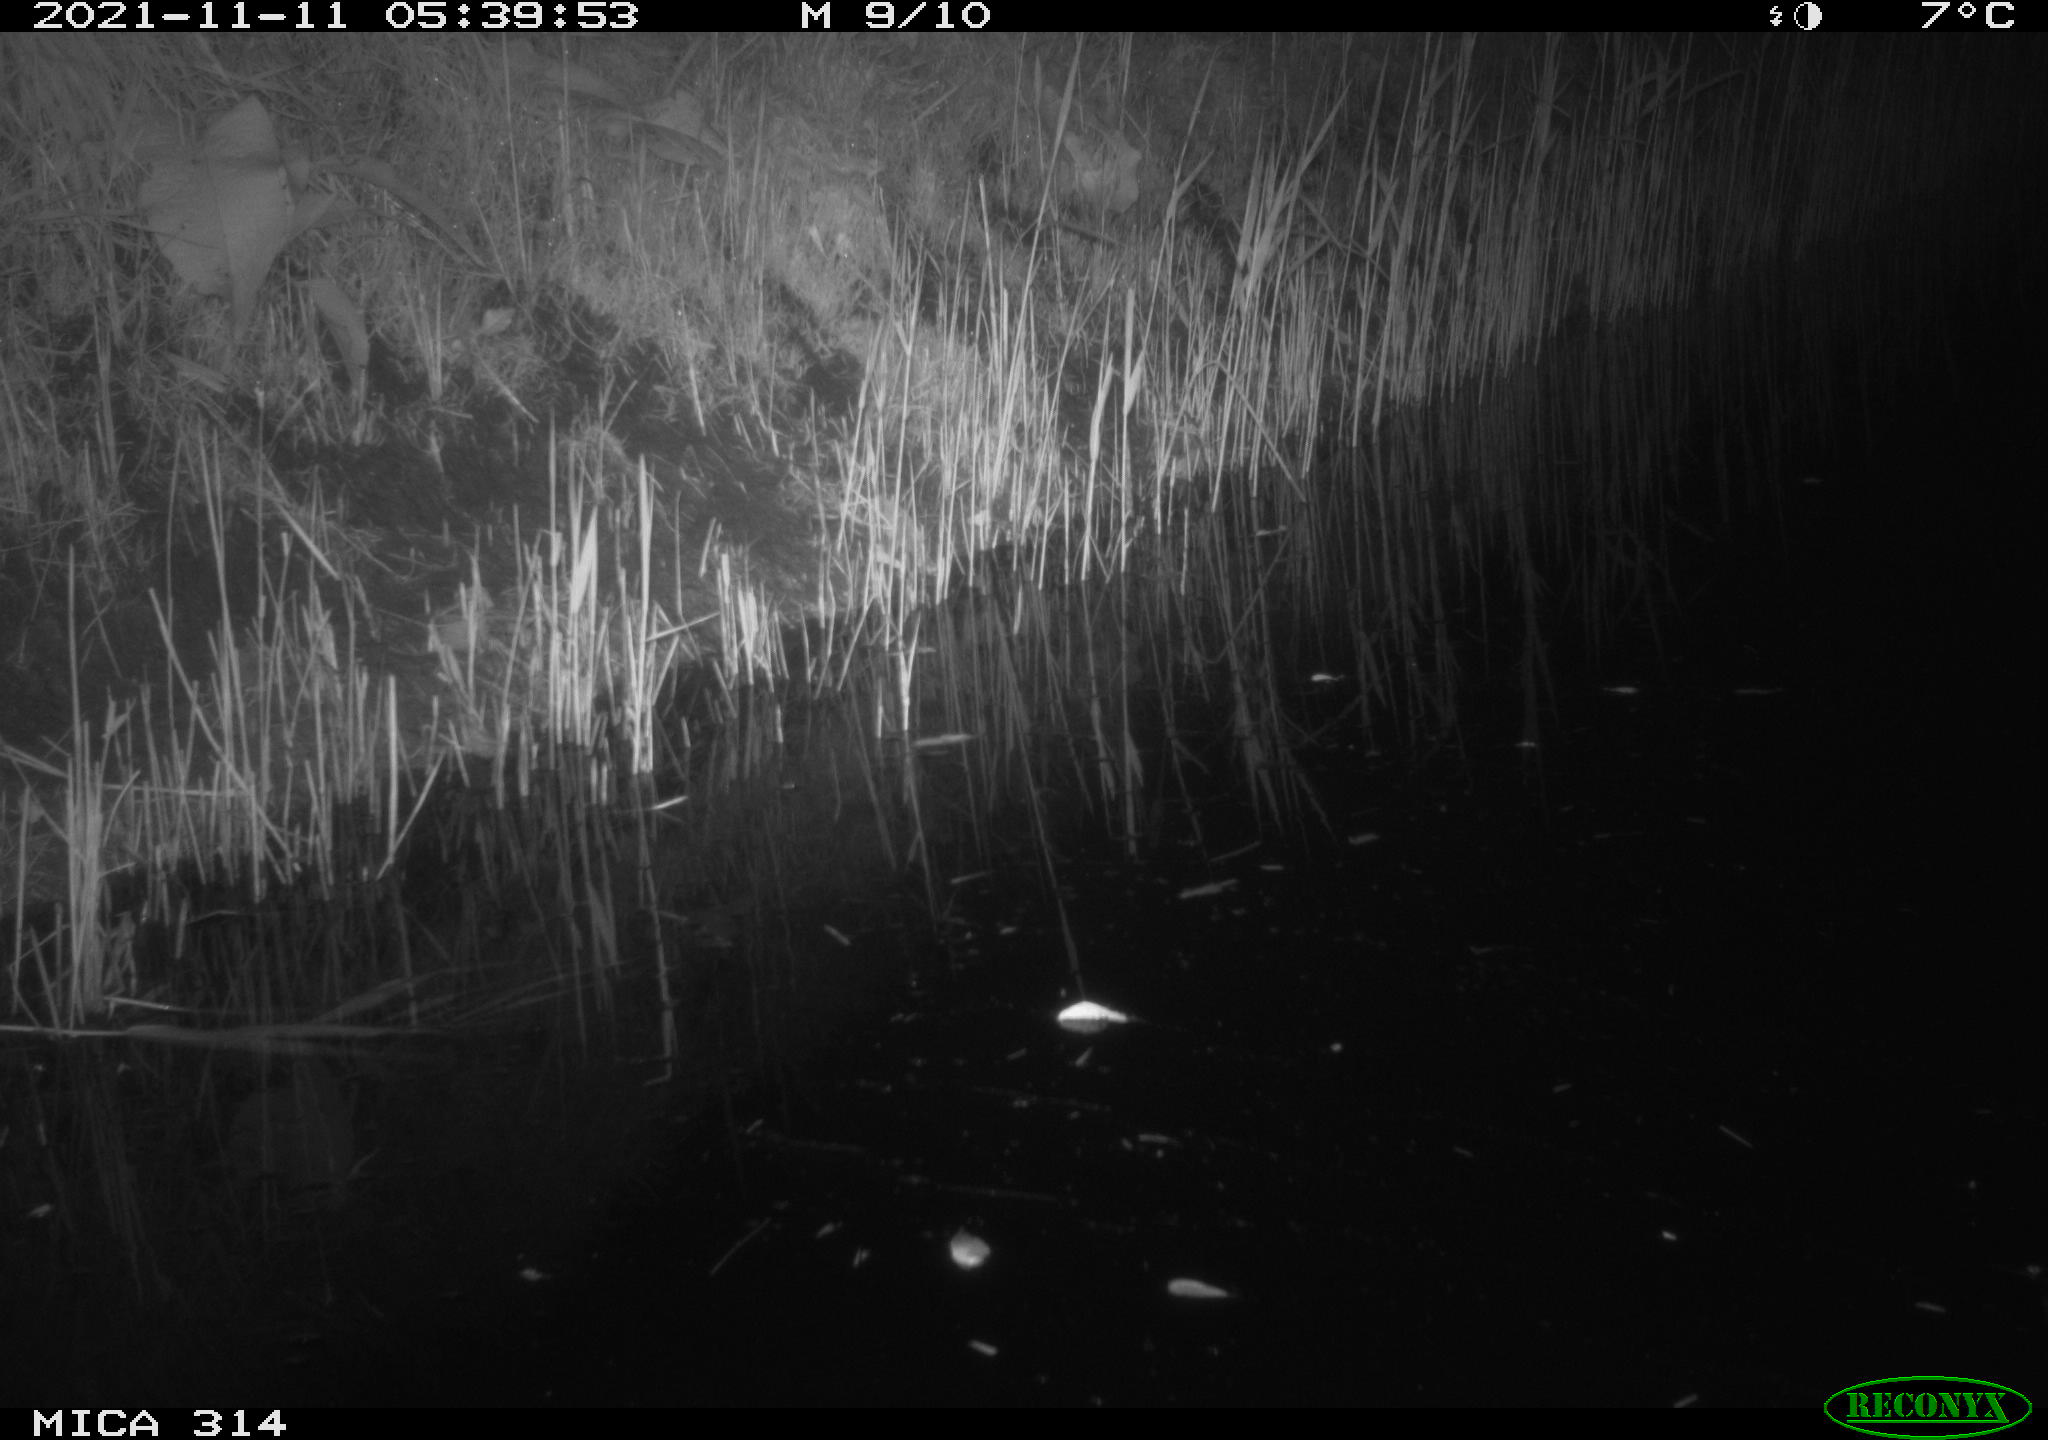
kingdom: Animalia
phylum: Chordata
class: Mammalia
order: Rodentia
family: Muridae
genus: Rattus
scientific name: Rattus norvegicus
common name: Brown rat
